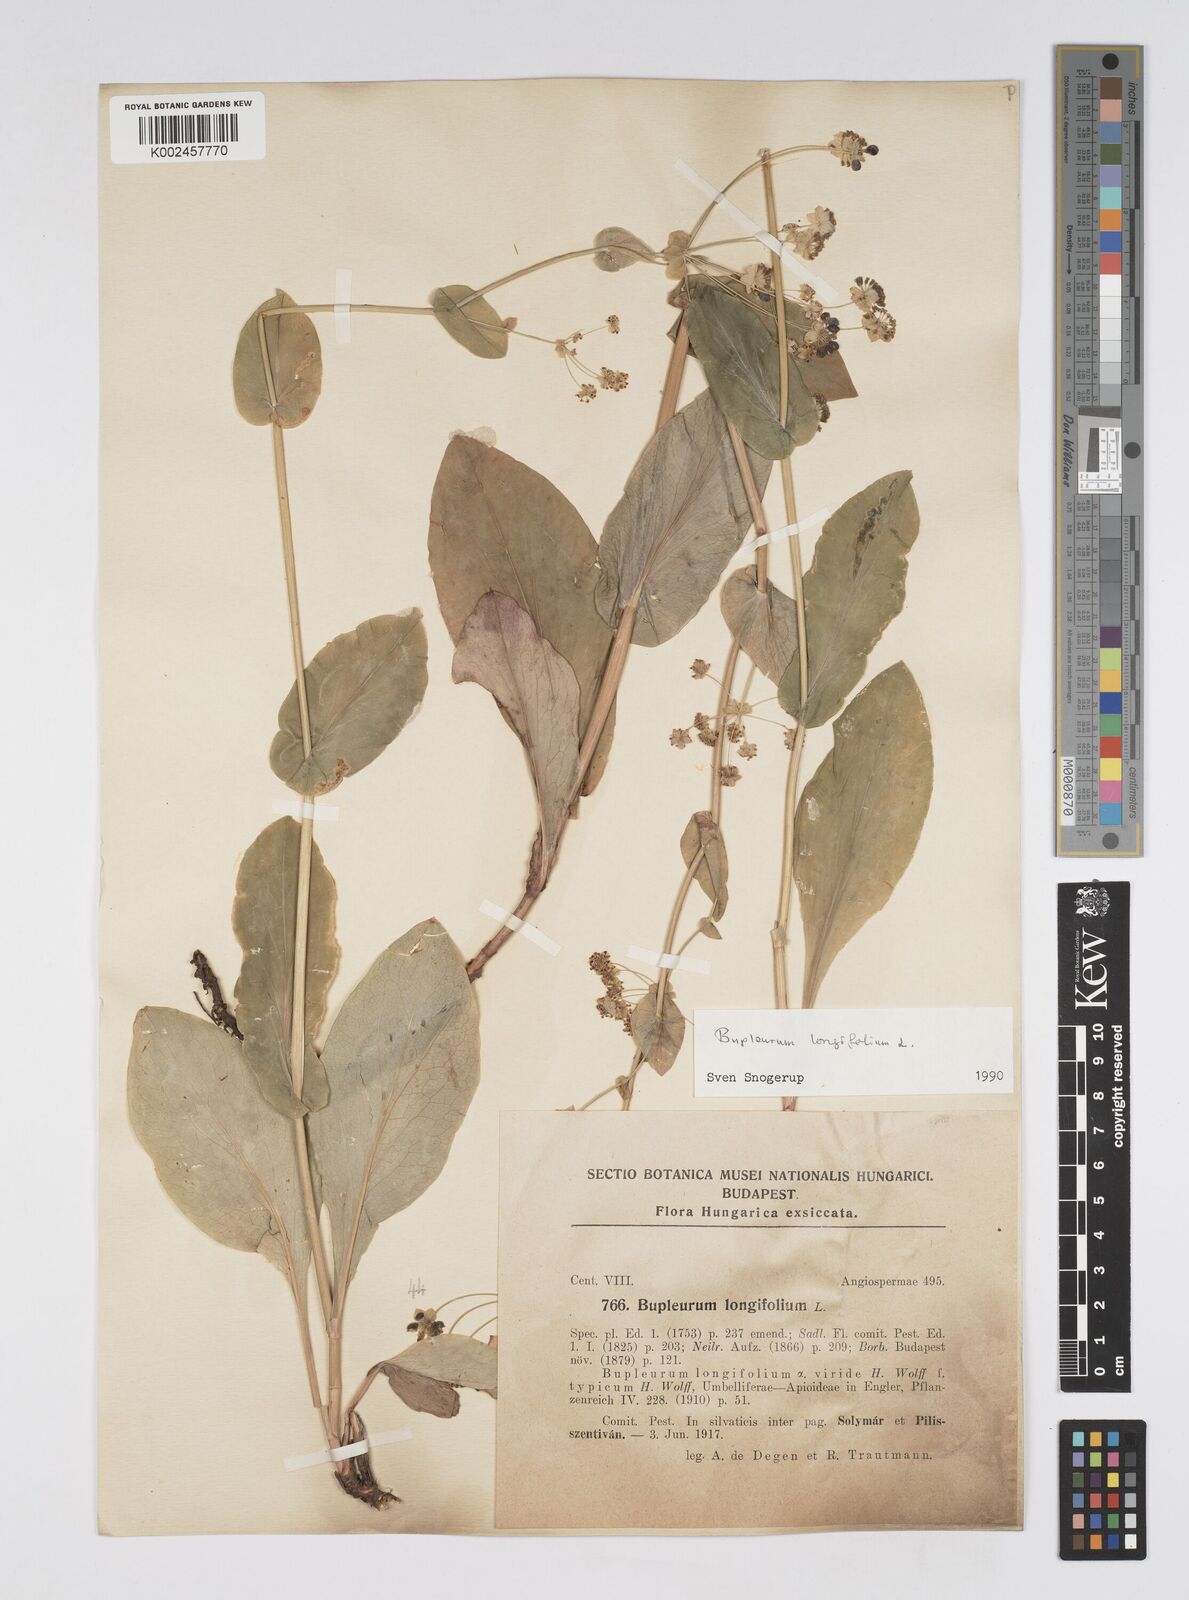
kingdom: Plantae
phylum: Tracheophyta
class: Magnoliopsida
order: Apiales
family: Apiaceae
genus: Bupleurum
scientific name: Bupleurum longifolium
